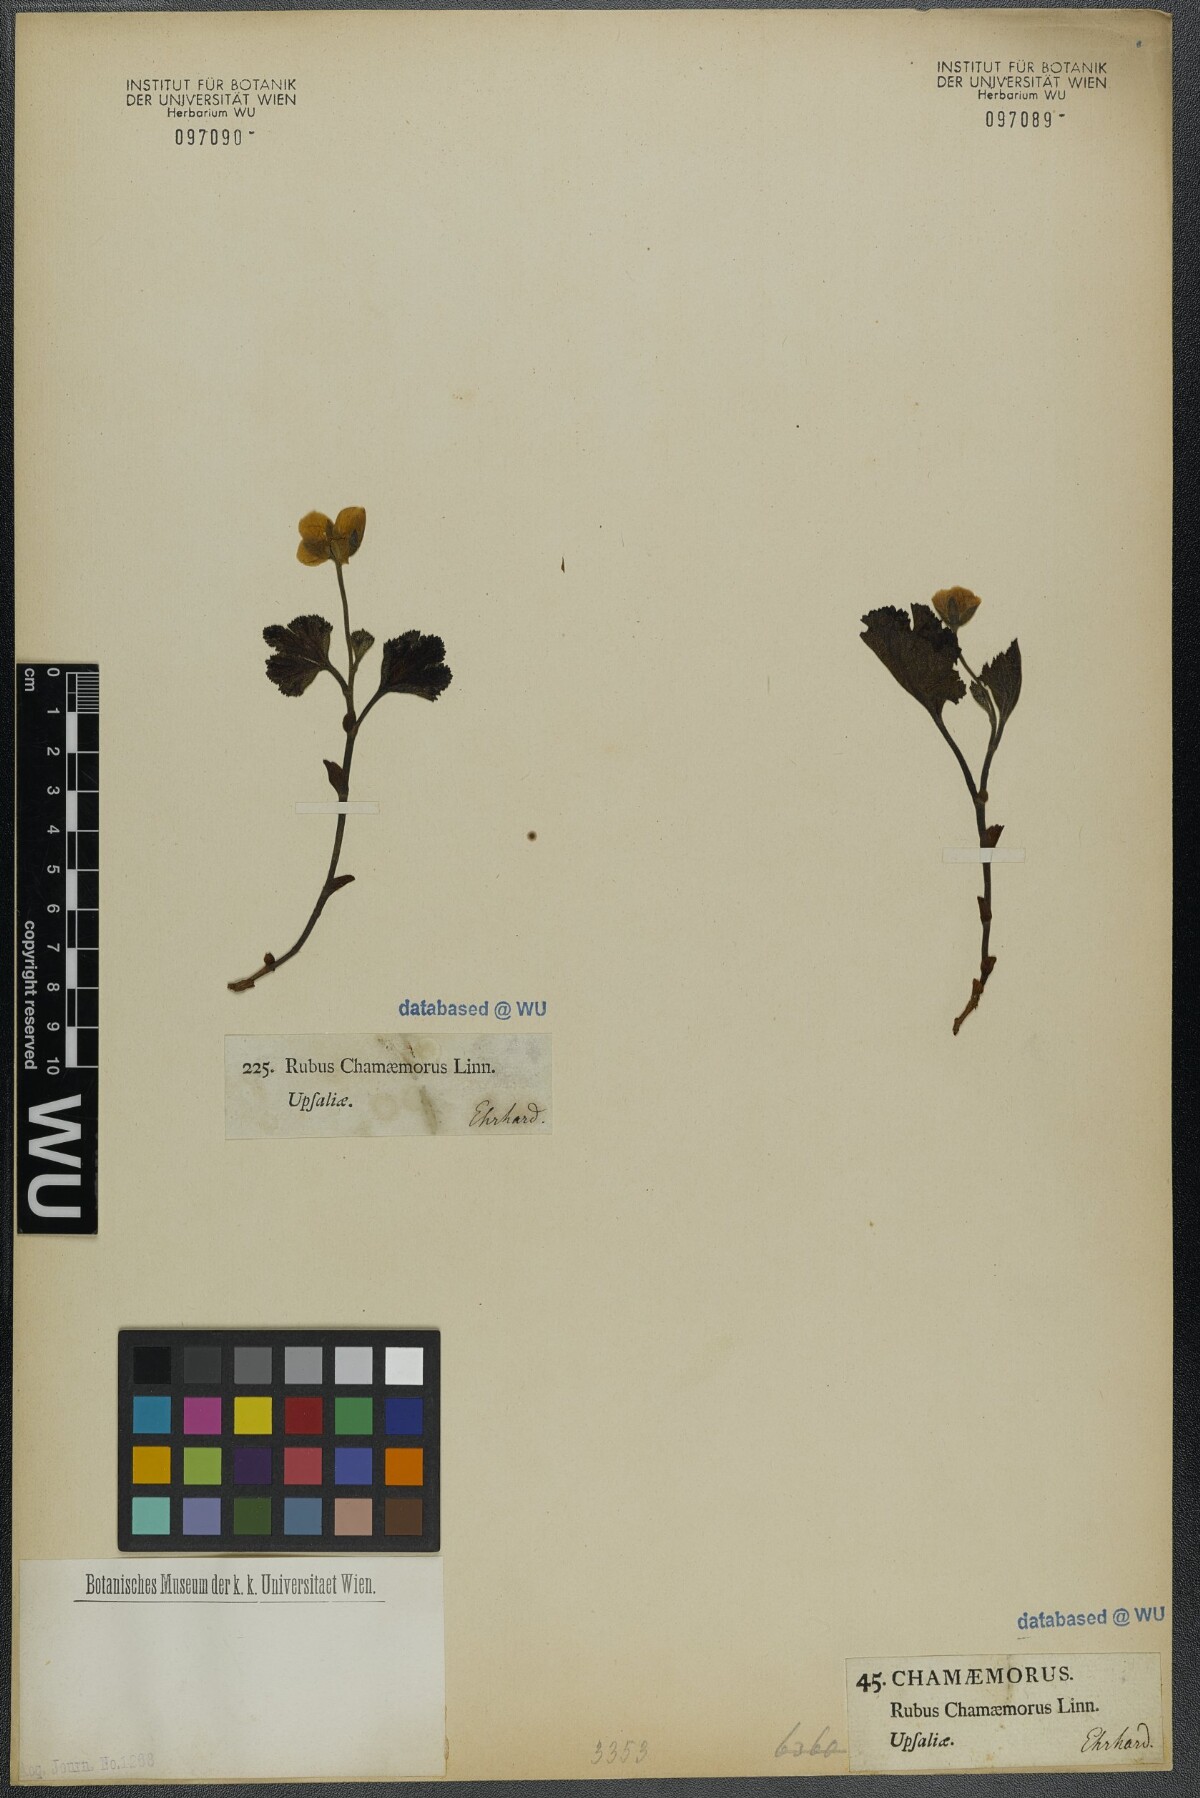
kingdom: Plantae
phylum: Tracheophyta
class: Magnoliopsida
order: Rosales
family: Rosaceae
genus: Rubus
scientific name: Rubus chamaemorus
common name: Cloudberry
